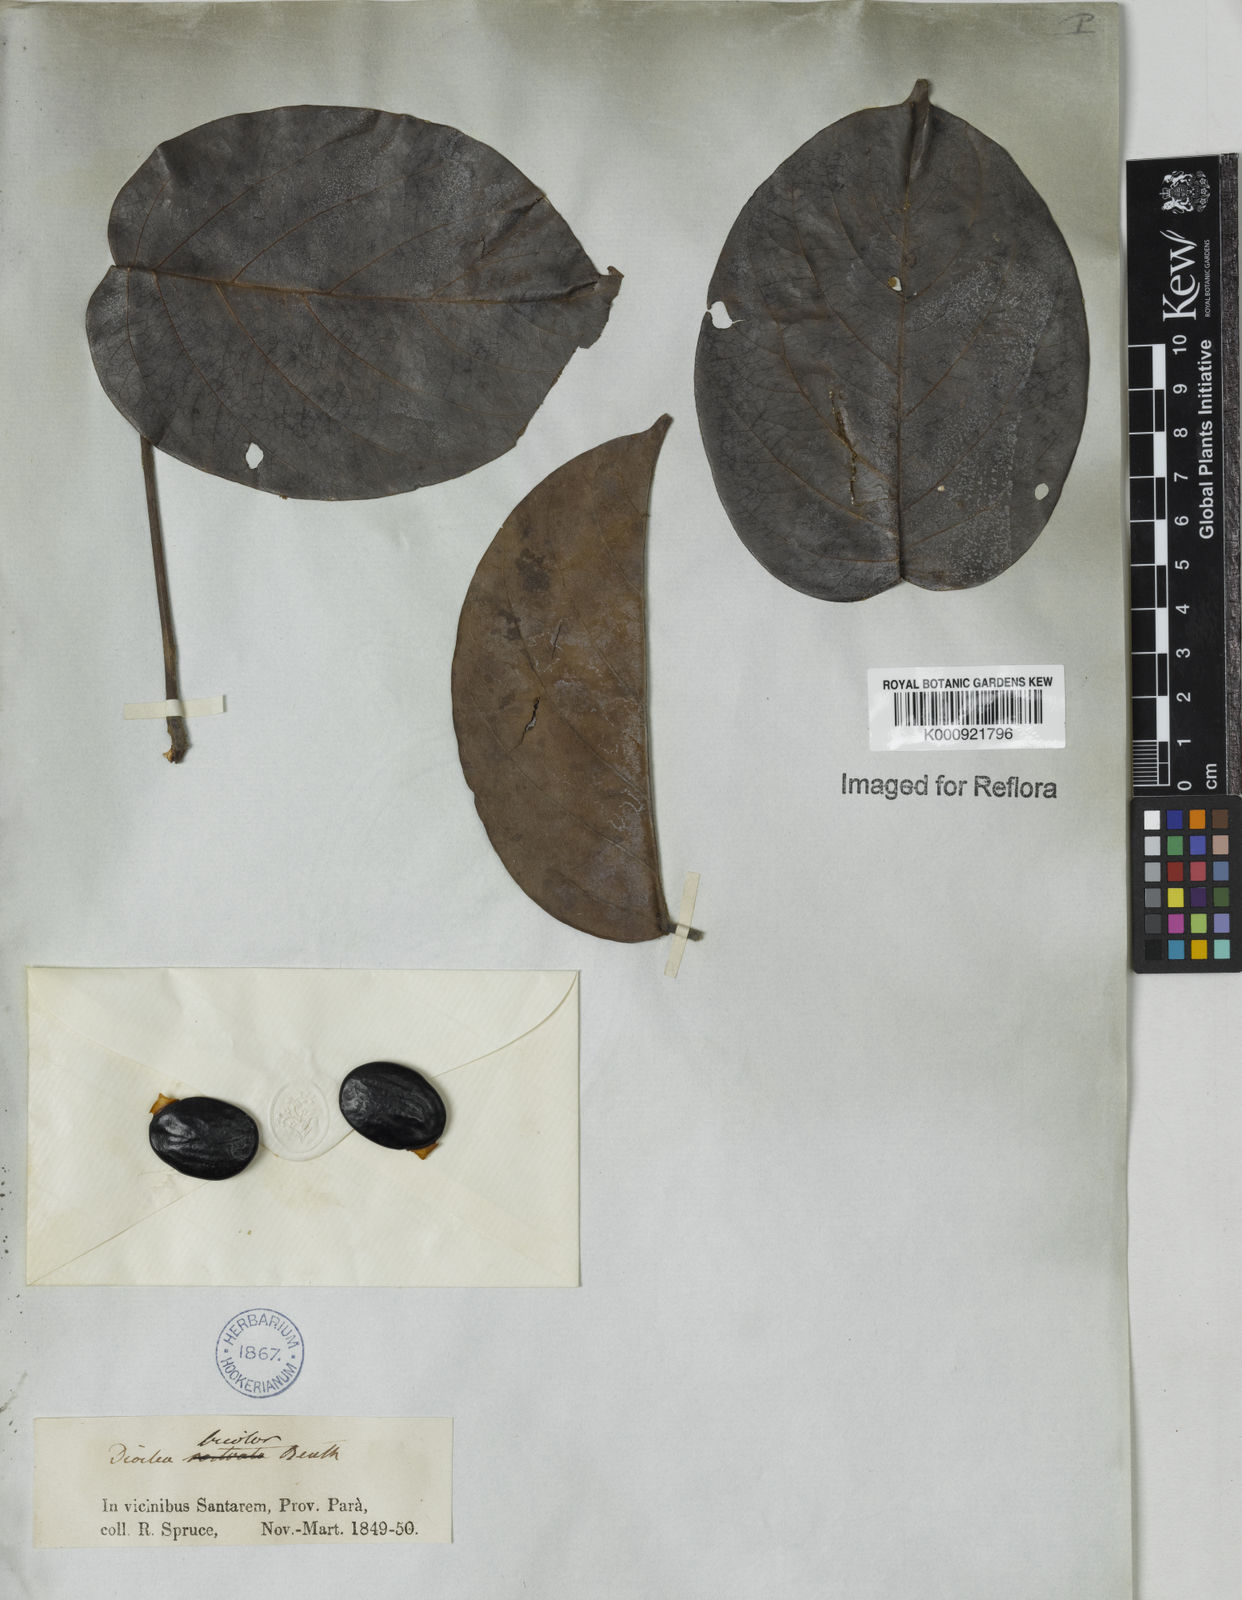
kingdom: Plantae
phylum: Tracheophyta
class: Magnoliopsida
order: Fabales
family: Fabaceae
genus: Macropsychanthus
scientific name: Macropsychanthus bicolor
